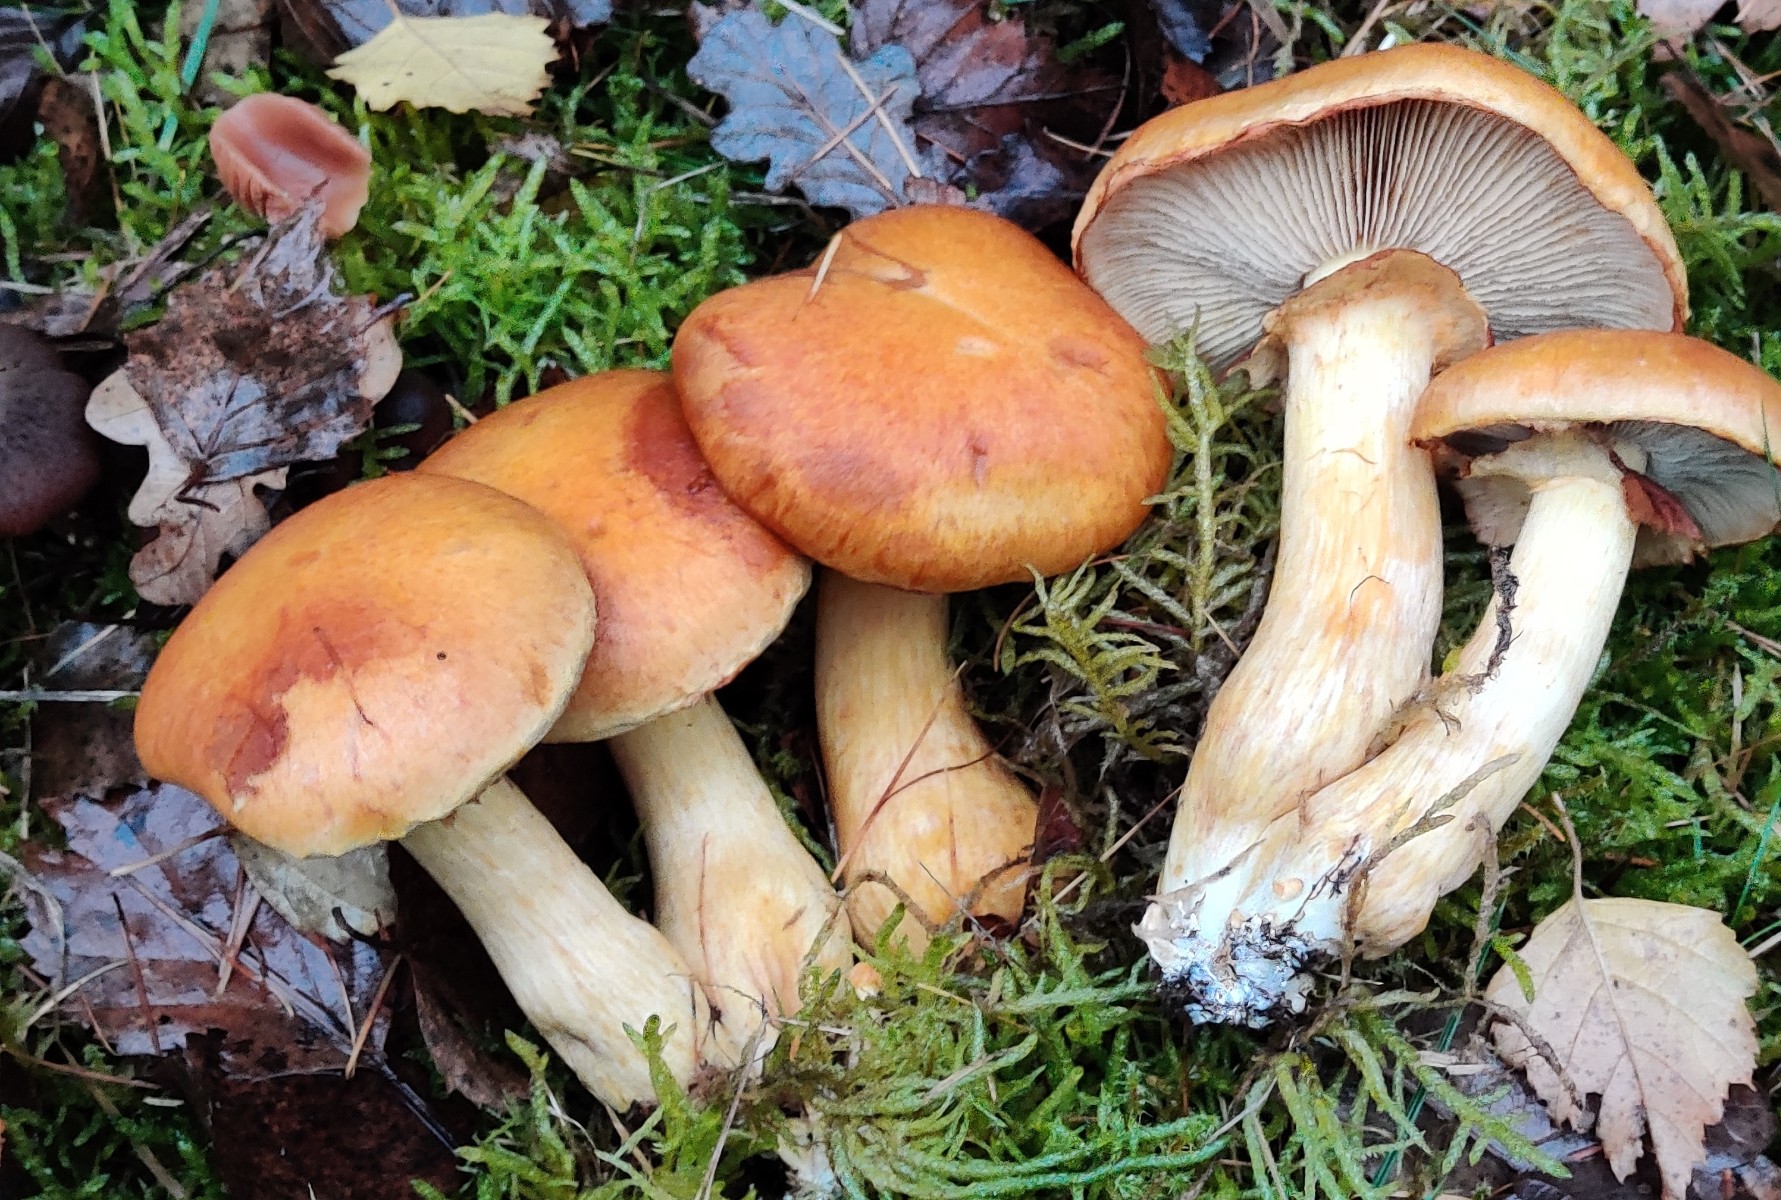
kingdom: Fungi
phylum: Basidiomycota
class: Agaricomycetes
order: Agaricales
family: Hymenogastraceae
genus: Gymnopilus
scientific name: Gymnopilus spectabilis
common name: fibret flammehat
